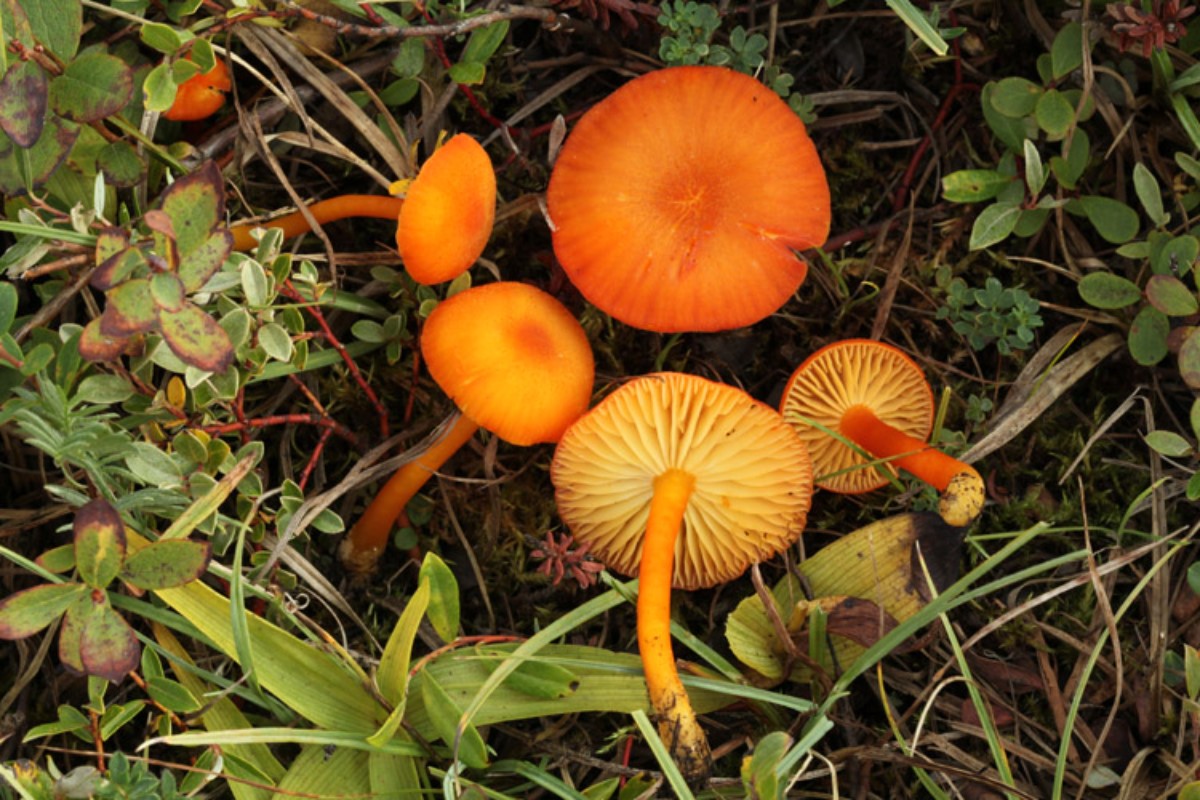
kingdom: Fungi
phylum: Basidiomycota
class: Agaricomycetes
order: Agaricales
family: Hygrophoraceae
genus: Hygrocybe
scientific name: Hygrocybe substrangulata
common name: kær-vokshat
